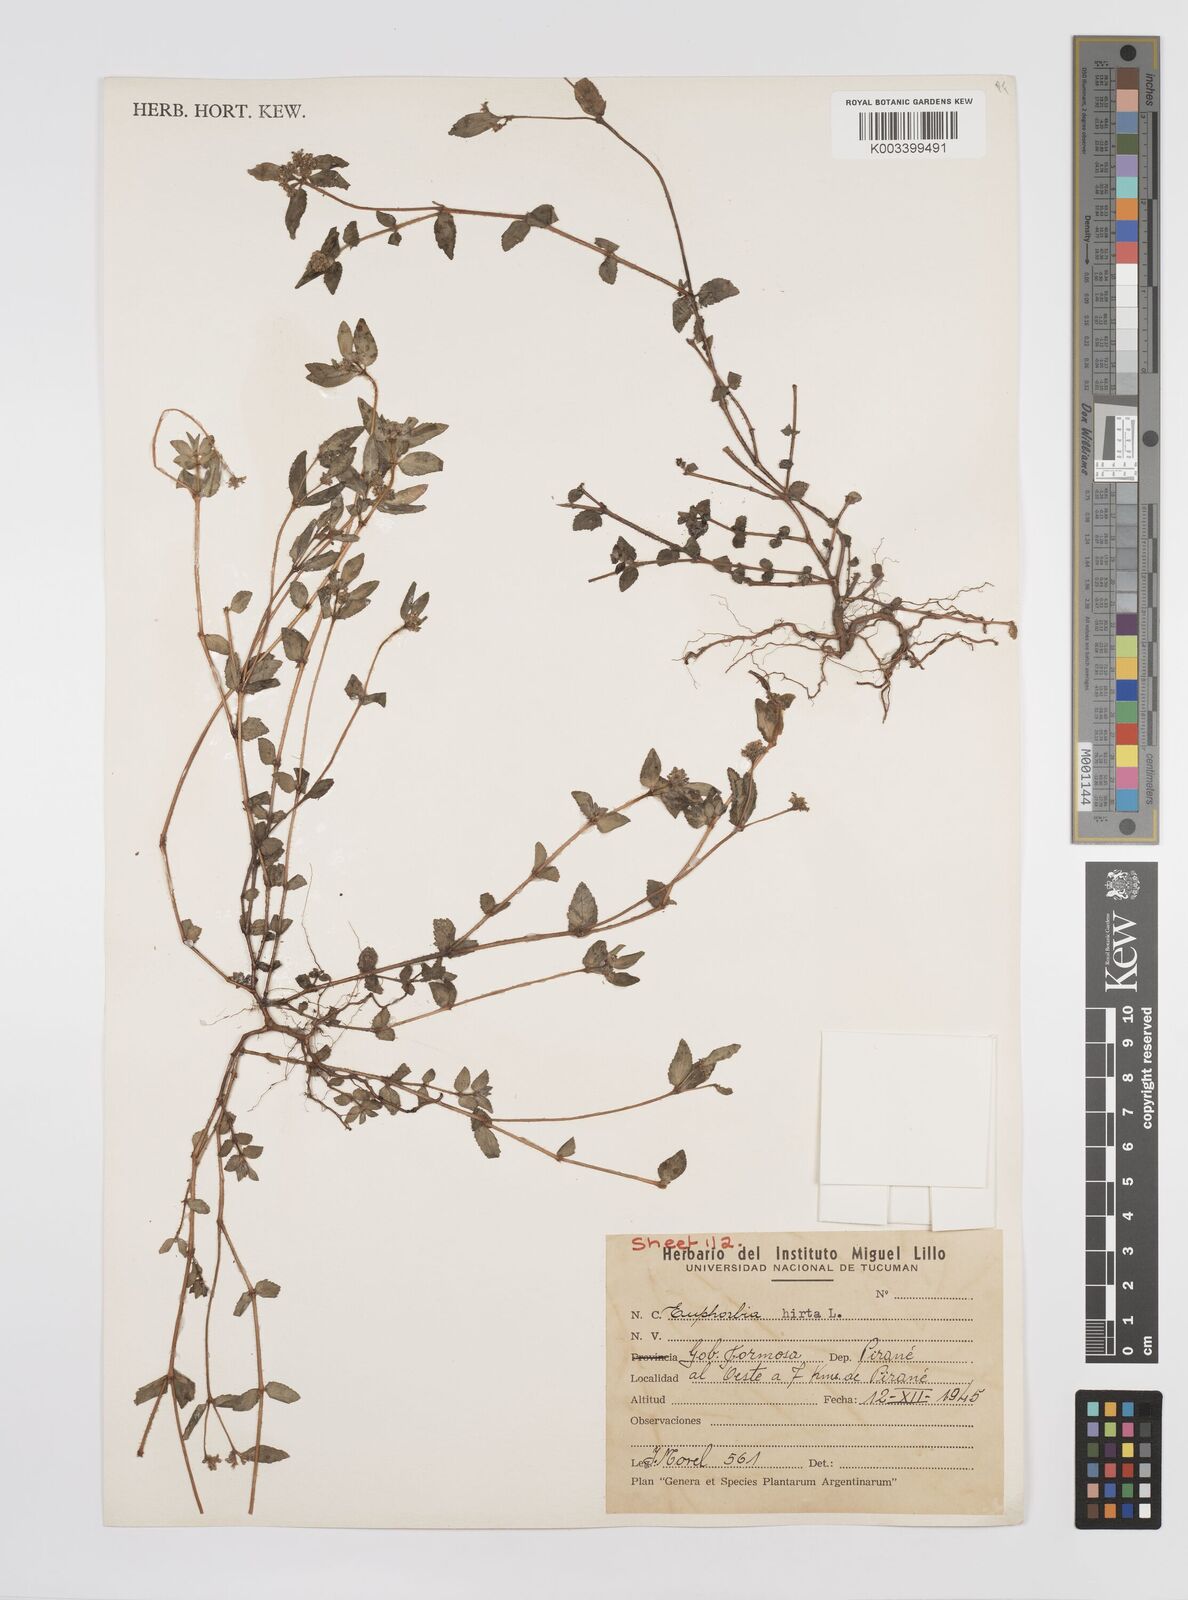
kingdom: Plantae
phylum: Tracheophyta
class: Magnoliopsida
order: Malpighiales
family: Euphorbiaceae
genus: Euphorbia
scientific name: Euphorbia hirta
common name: Pillpod sandmat
